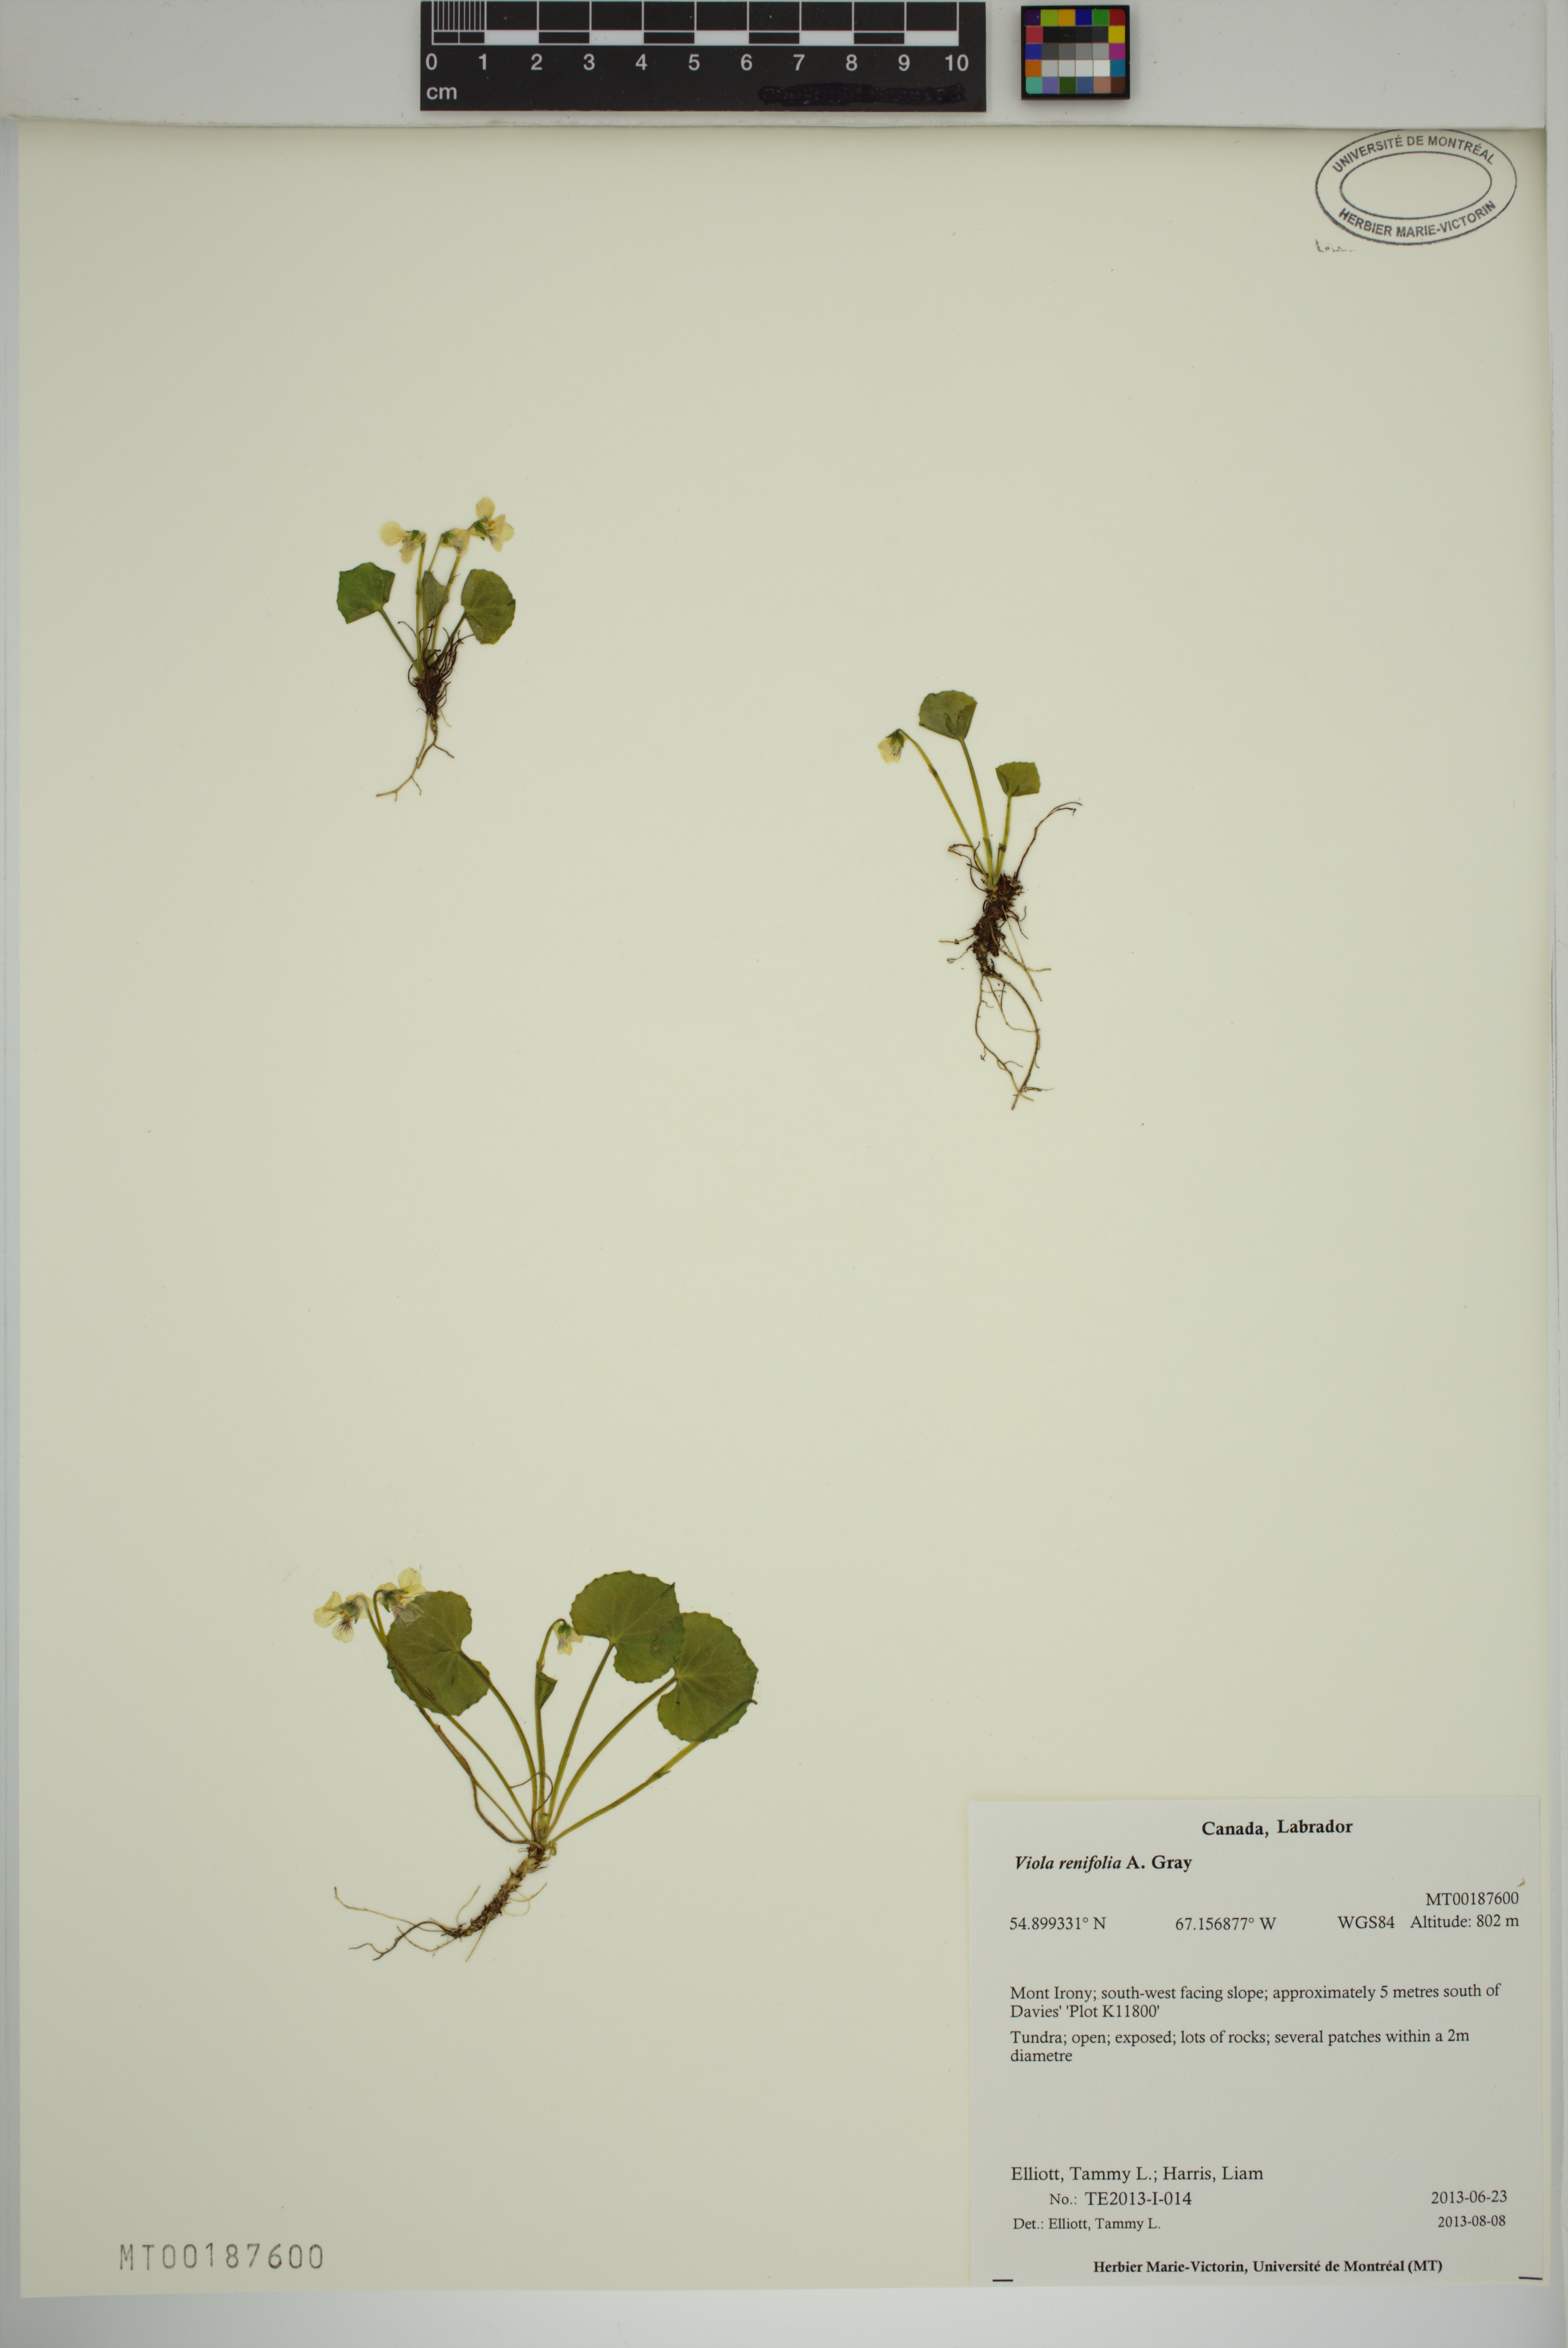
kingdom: Plantae
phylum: Tracheophyta
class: Magnoliopsida
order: Malpighiales
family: Violaceae
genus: Viola
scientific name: Viola renifolia
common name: Kidney-leaf violet
